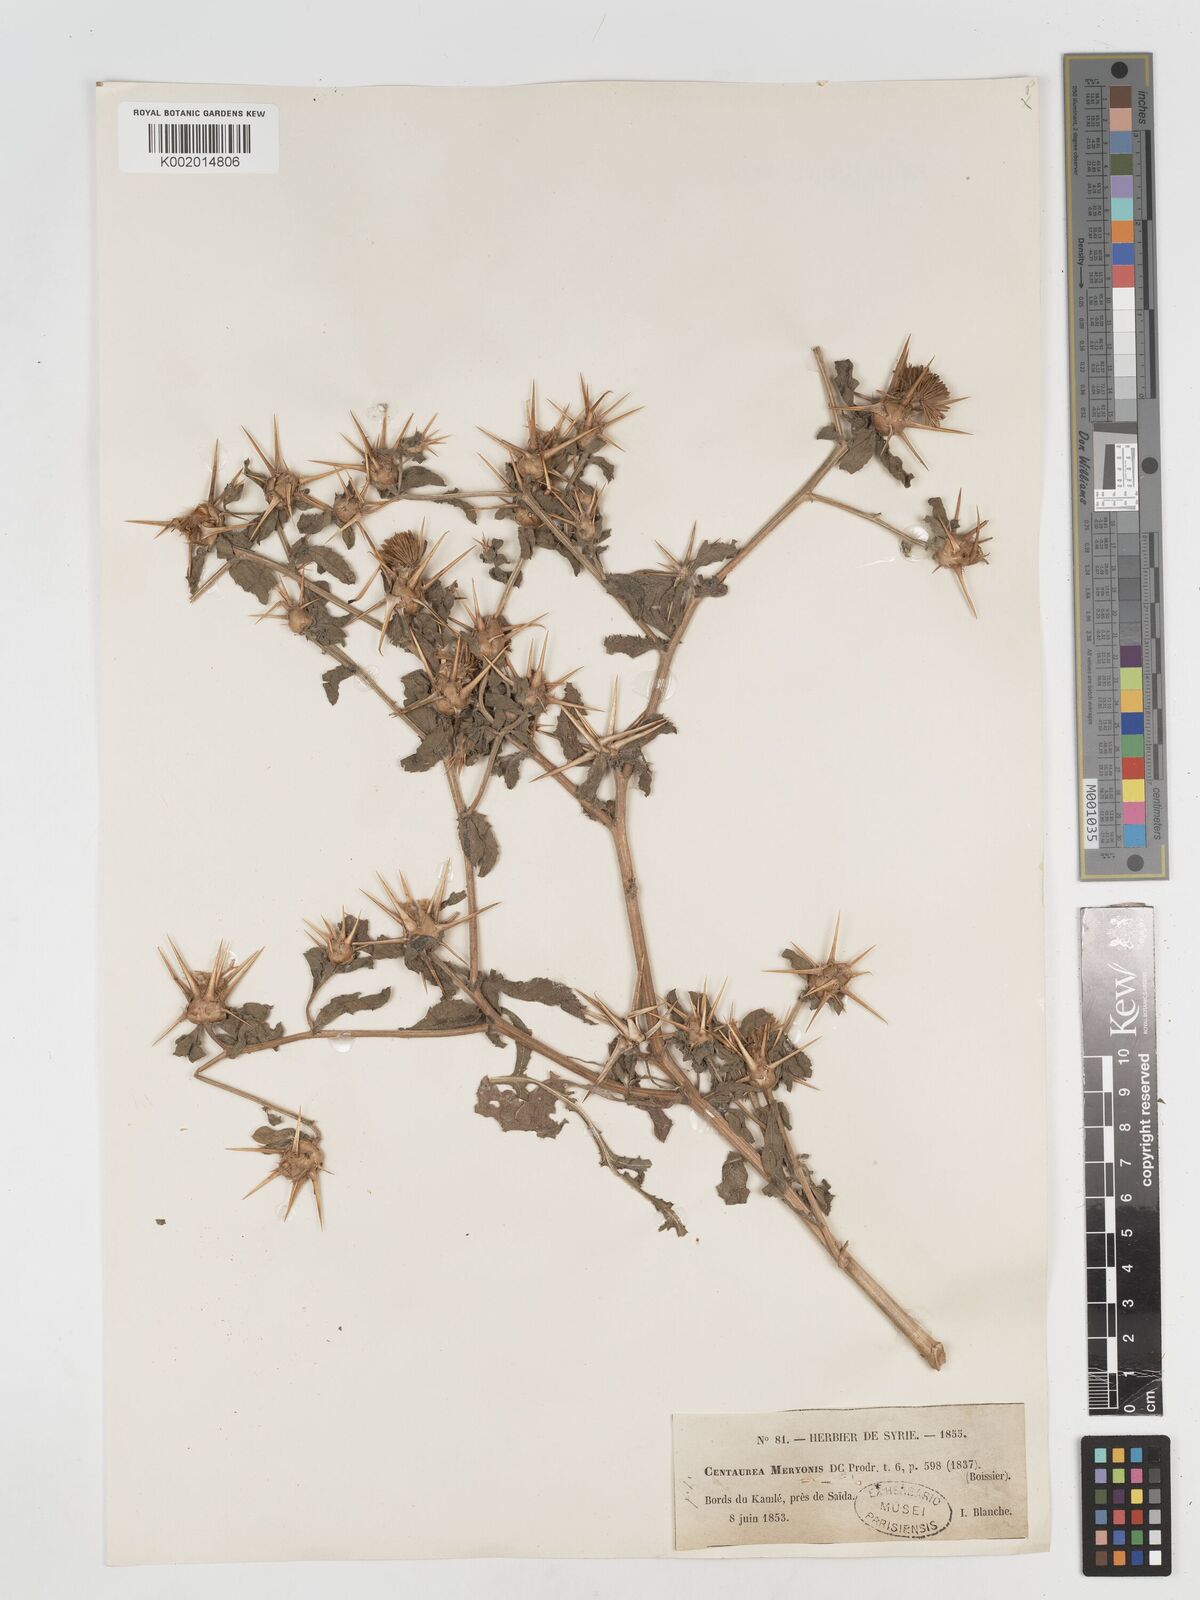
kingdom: Plantae
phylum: Tracheophyta
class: Magnoliopsida
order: Asterales
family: Asteraceae
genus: Centaurea
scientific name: Centaurea iberica
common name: Iberian knapweed
